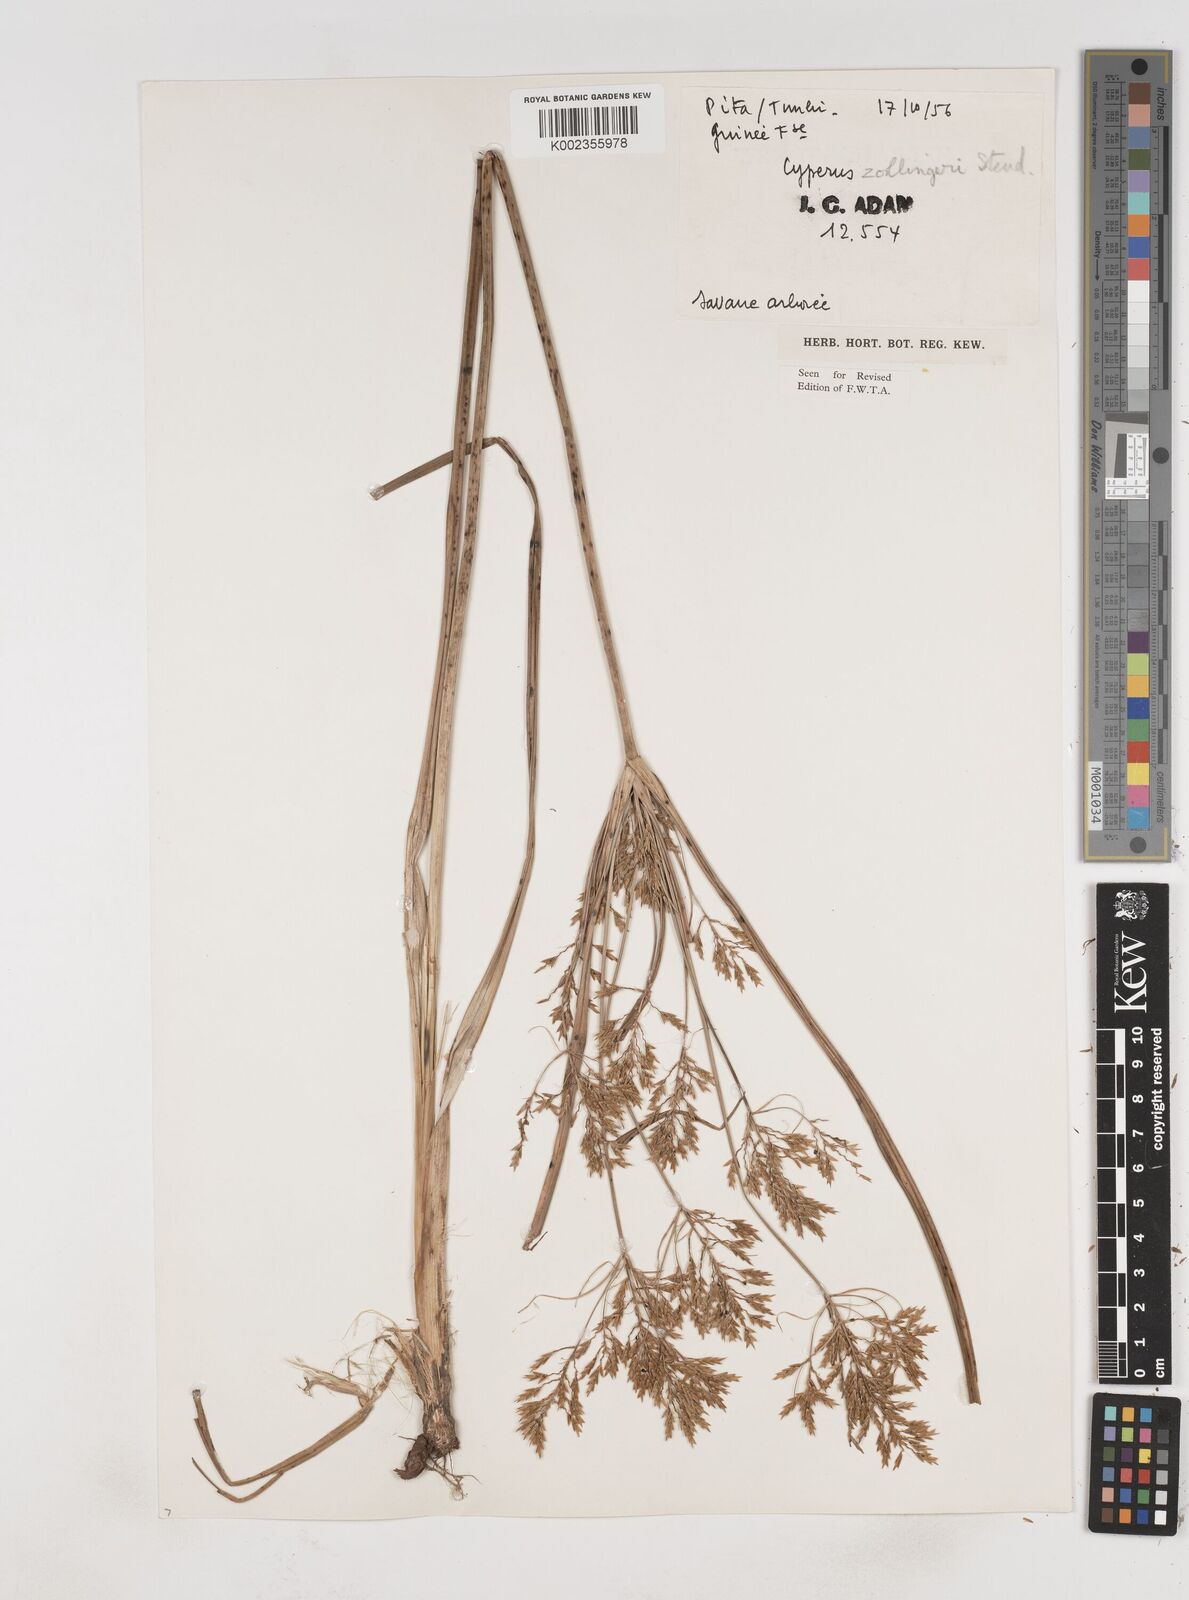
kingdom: Plantae
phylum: Tracheophyta
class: Liliopsida
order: Poales
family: Cyperaceae
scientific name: Cyperaceae
